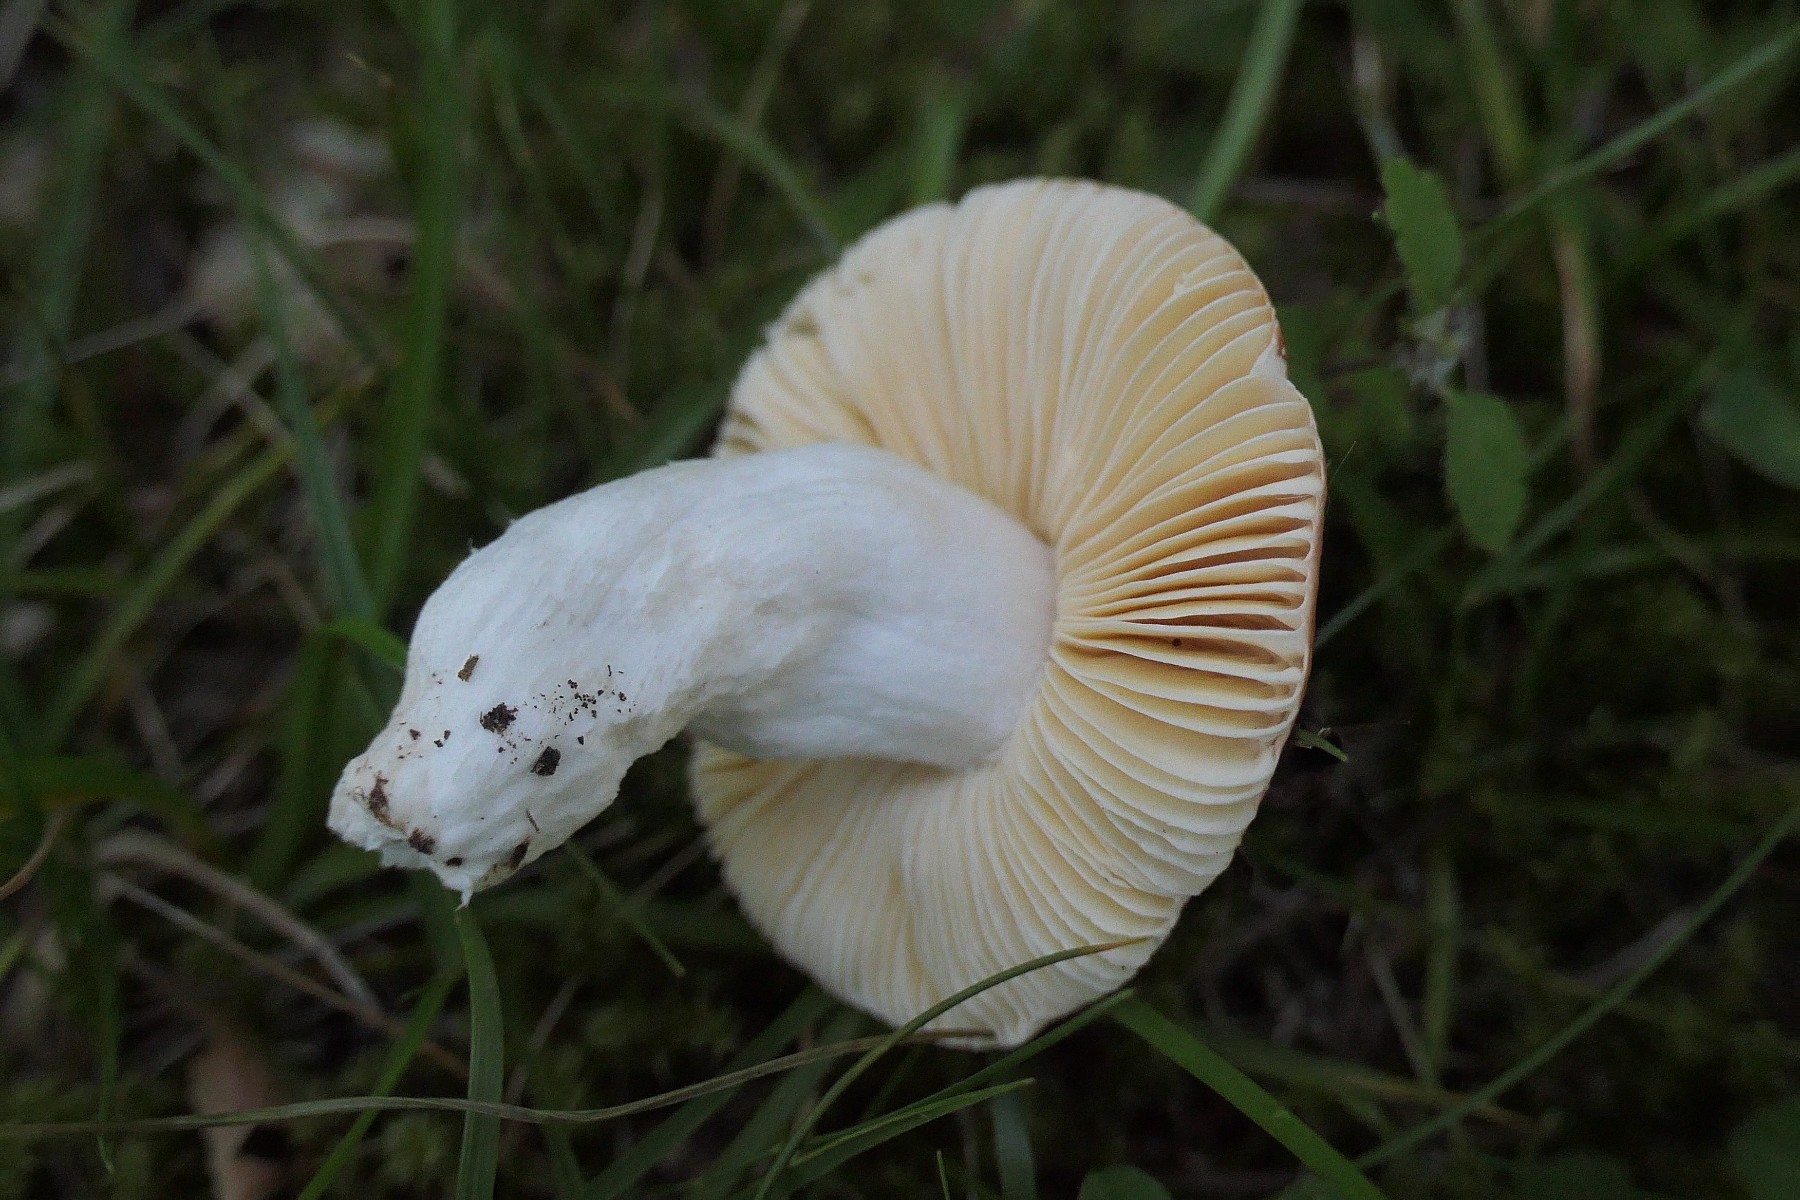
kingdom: Fungi
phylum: Basidiomycota
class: Agaricomycetes
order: Russulales
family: Russulaceae
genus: Russula
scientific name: Russula odorata
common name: duft-skørhat
